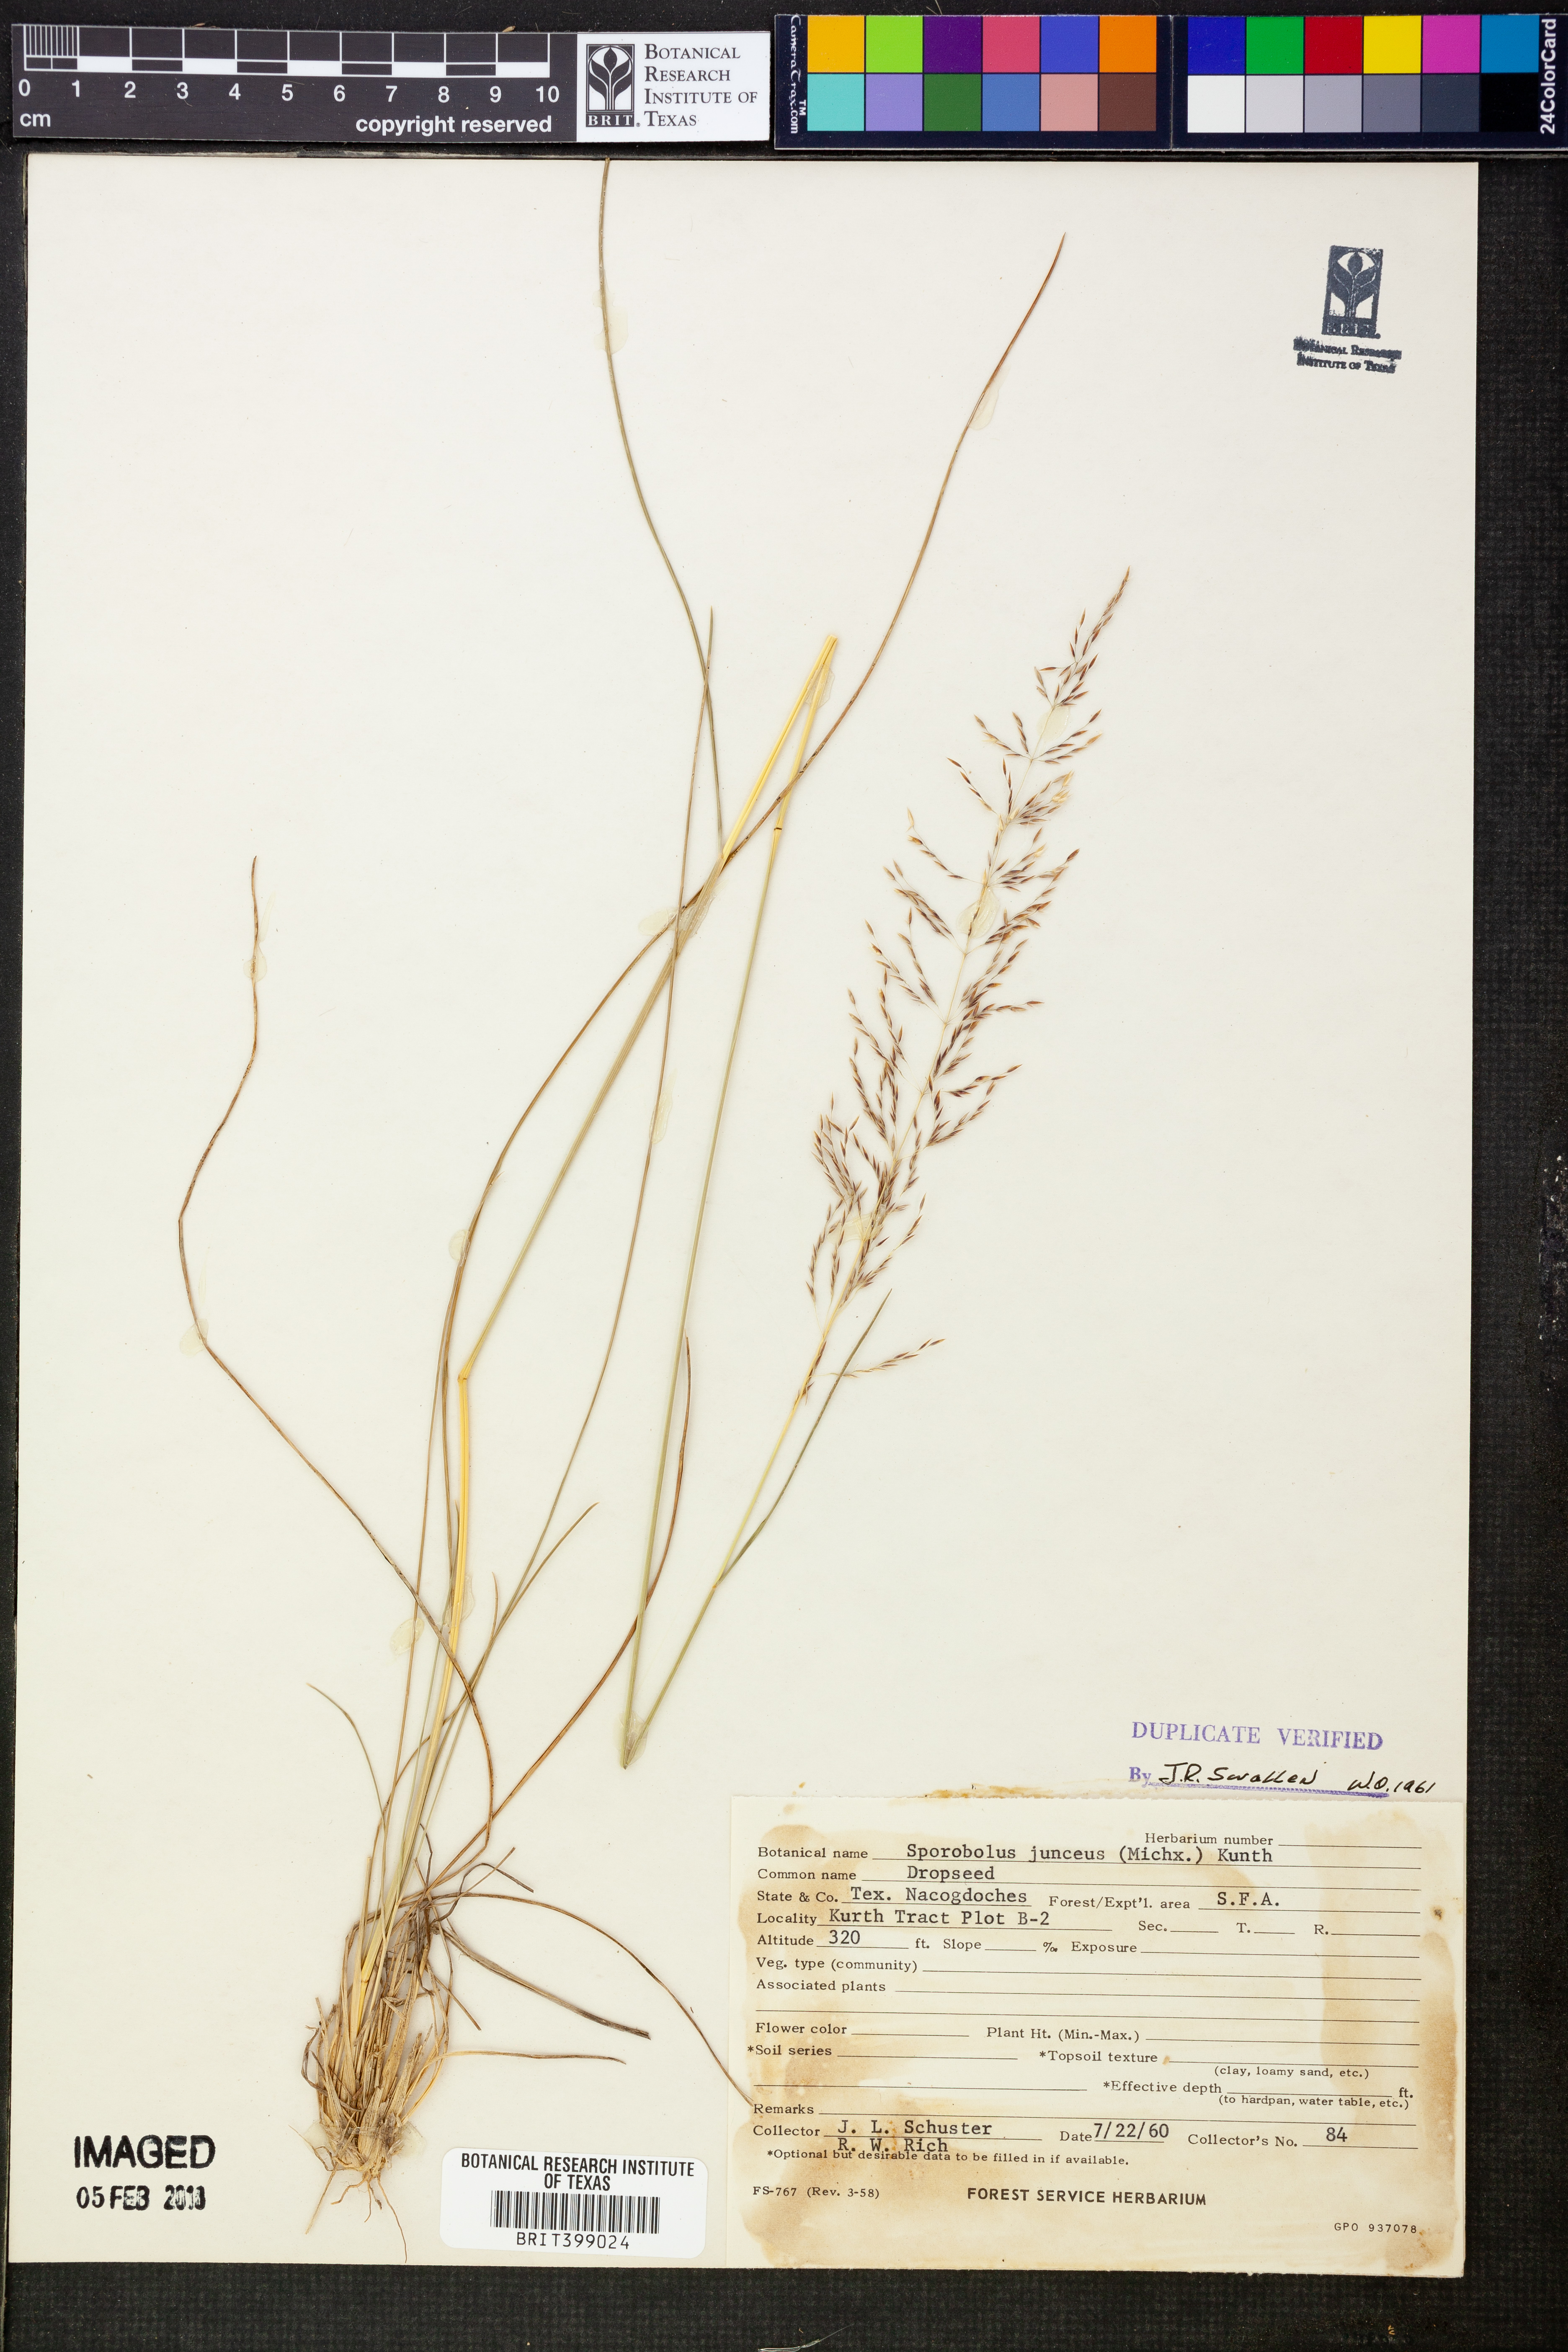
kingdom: Plantae
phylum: Tracheophyta
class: Liliopsida
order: Poales
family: Poaceae
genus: Sporobolus
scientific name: Sporobolus junceus
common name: Lizard grass
